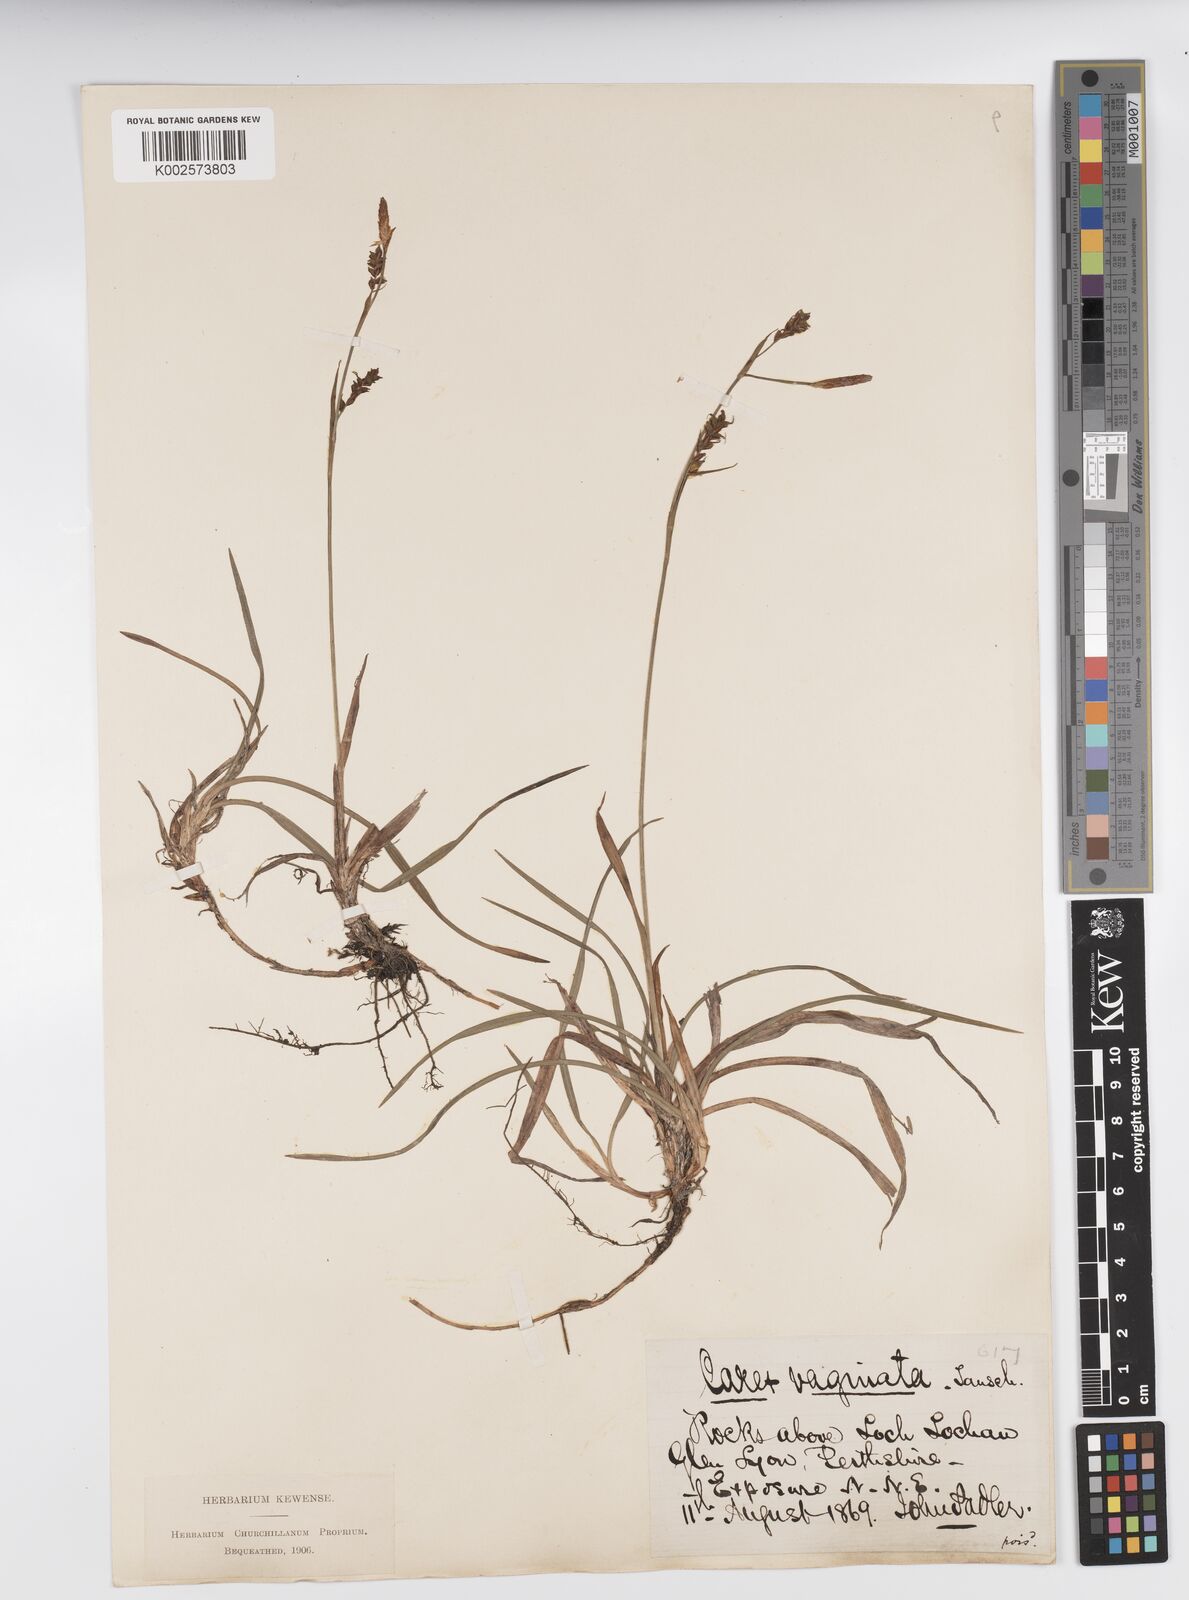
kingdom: Plantae
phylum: Tracheophyta
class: Liliopsida
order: Poales
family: Cyperaceae
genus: Carex
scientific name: Carex vaginata
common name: Sheathed sedge
